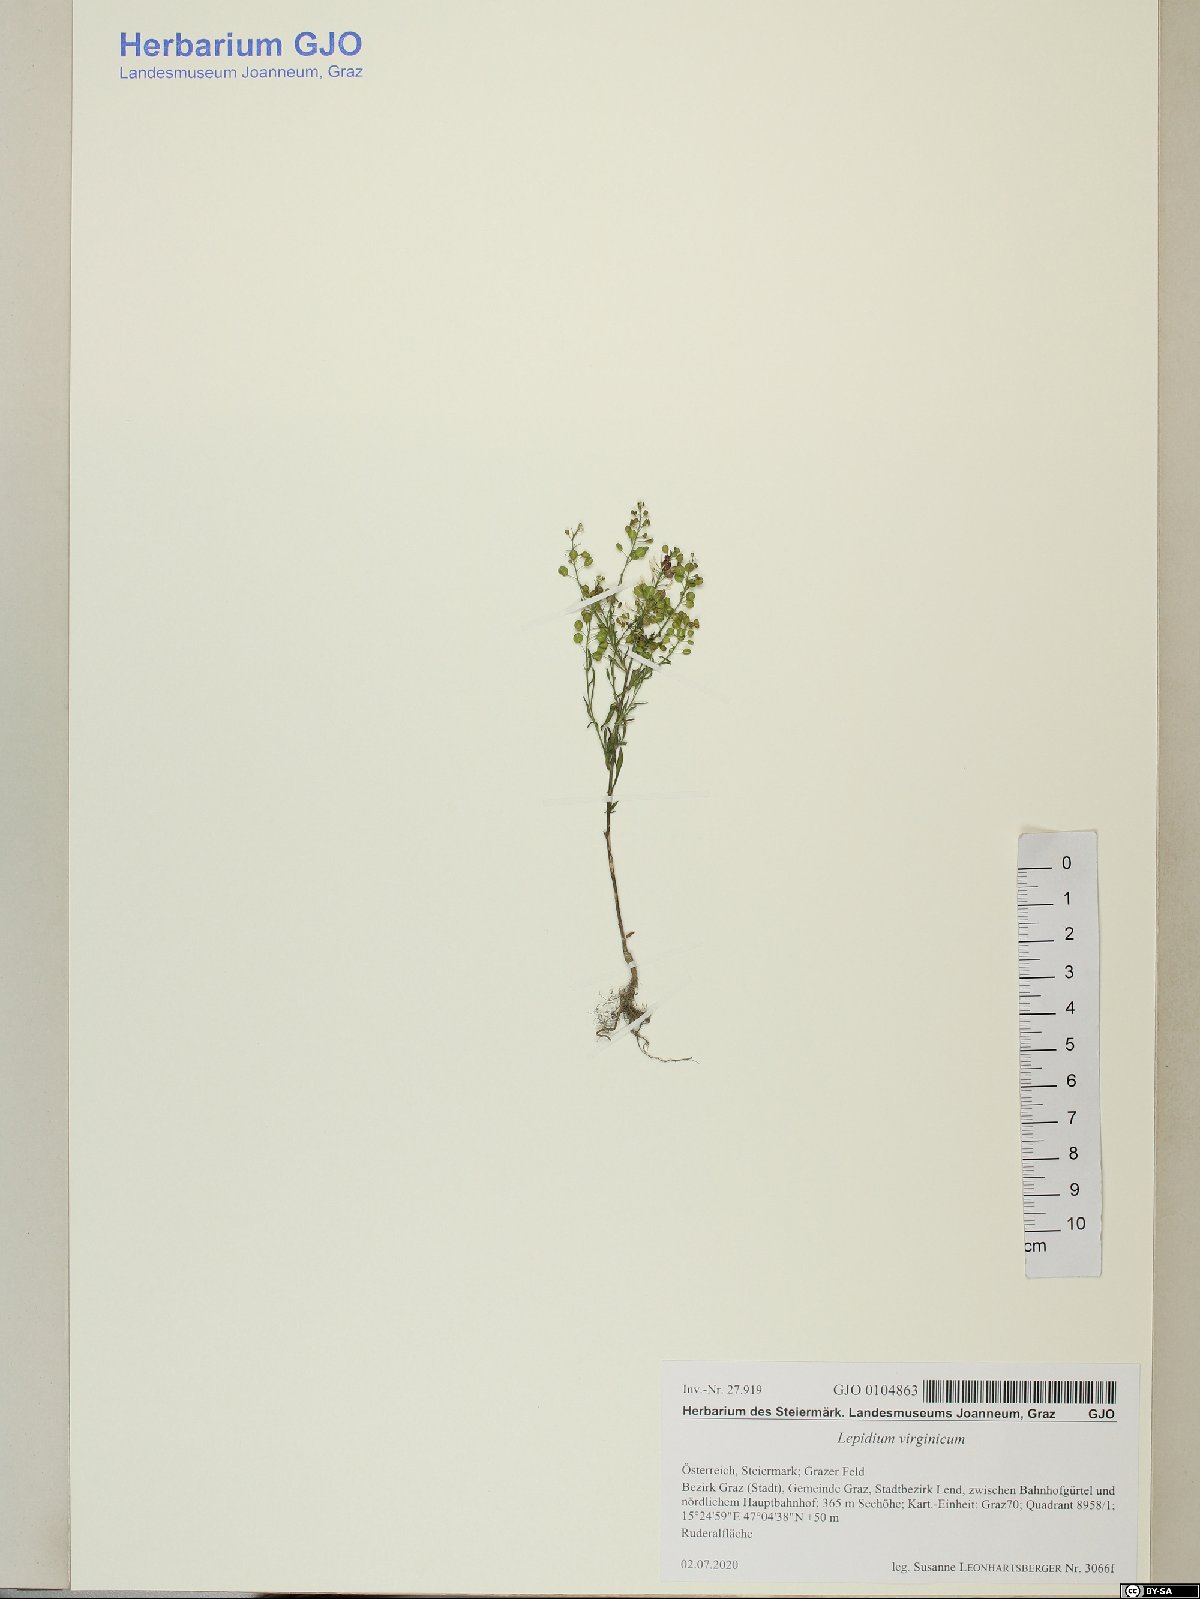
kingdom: Plantae
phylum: Tracheophyta
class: Magnoliopsida
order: Brassicales
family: Brassicaceae
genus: Lepidium
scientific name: Lepidium virginicum
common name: Least pepperwort
